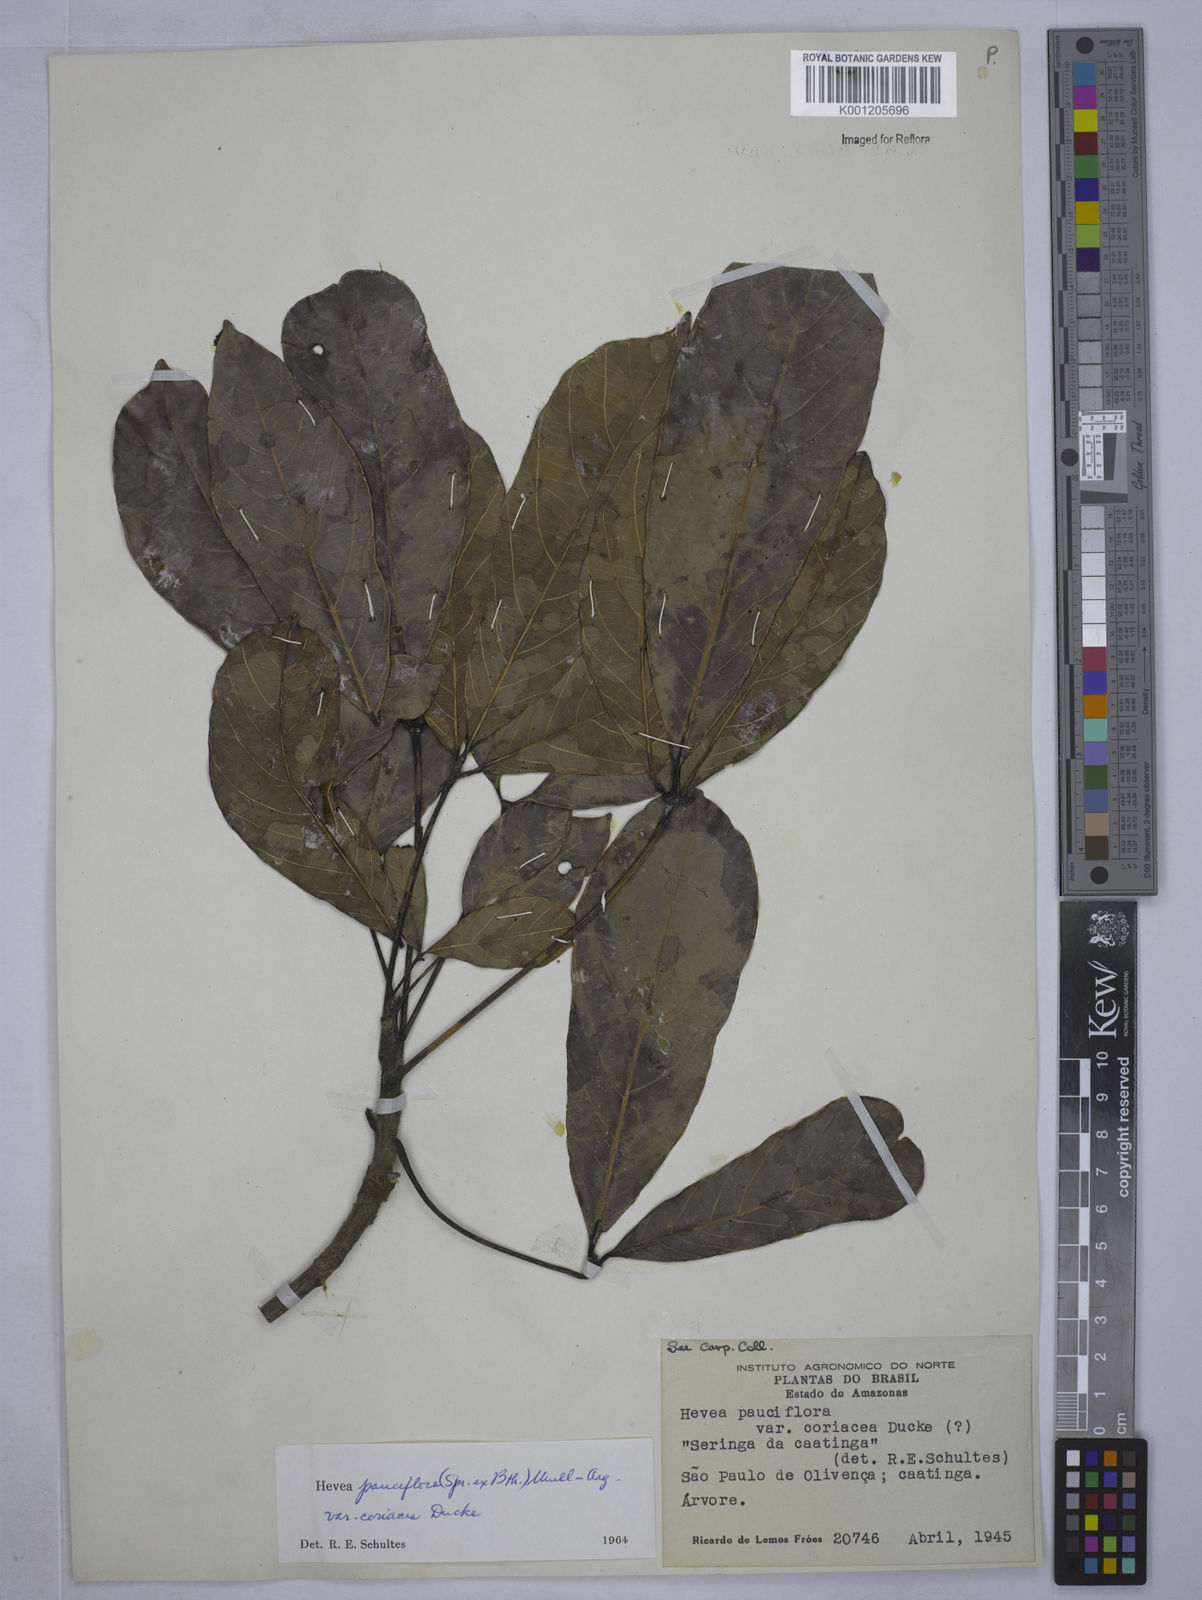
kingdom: Plantae
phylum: Tracheophyta
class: Magnoliopsida
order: Malpighiales
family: Euphorbiaceae
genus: Hevea
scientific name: Hevea pauciflora
